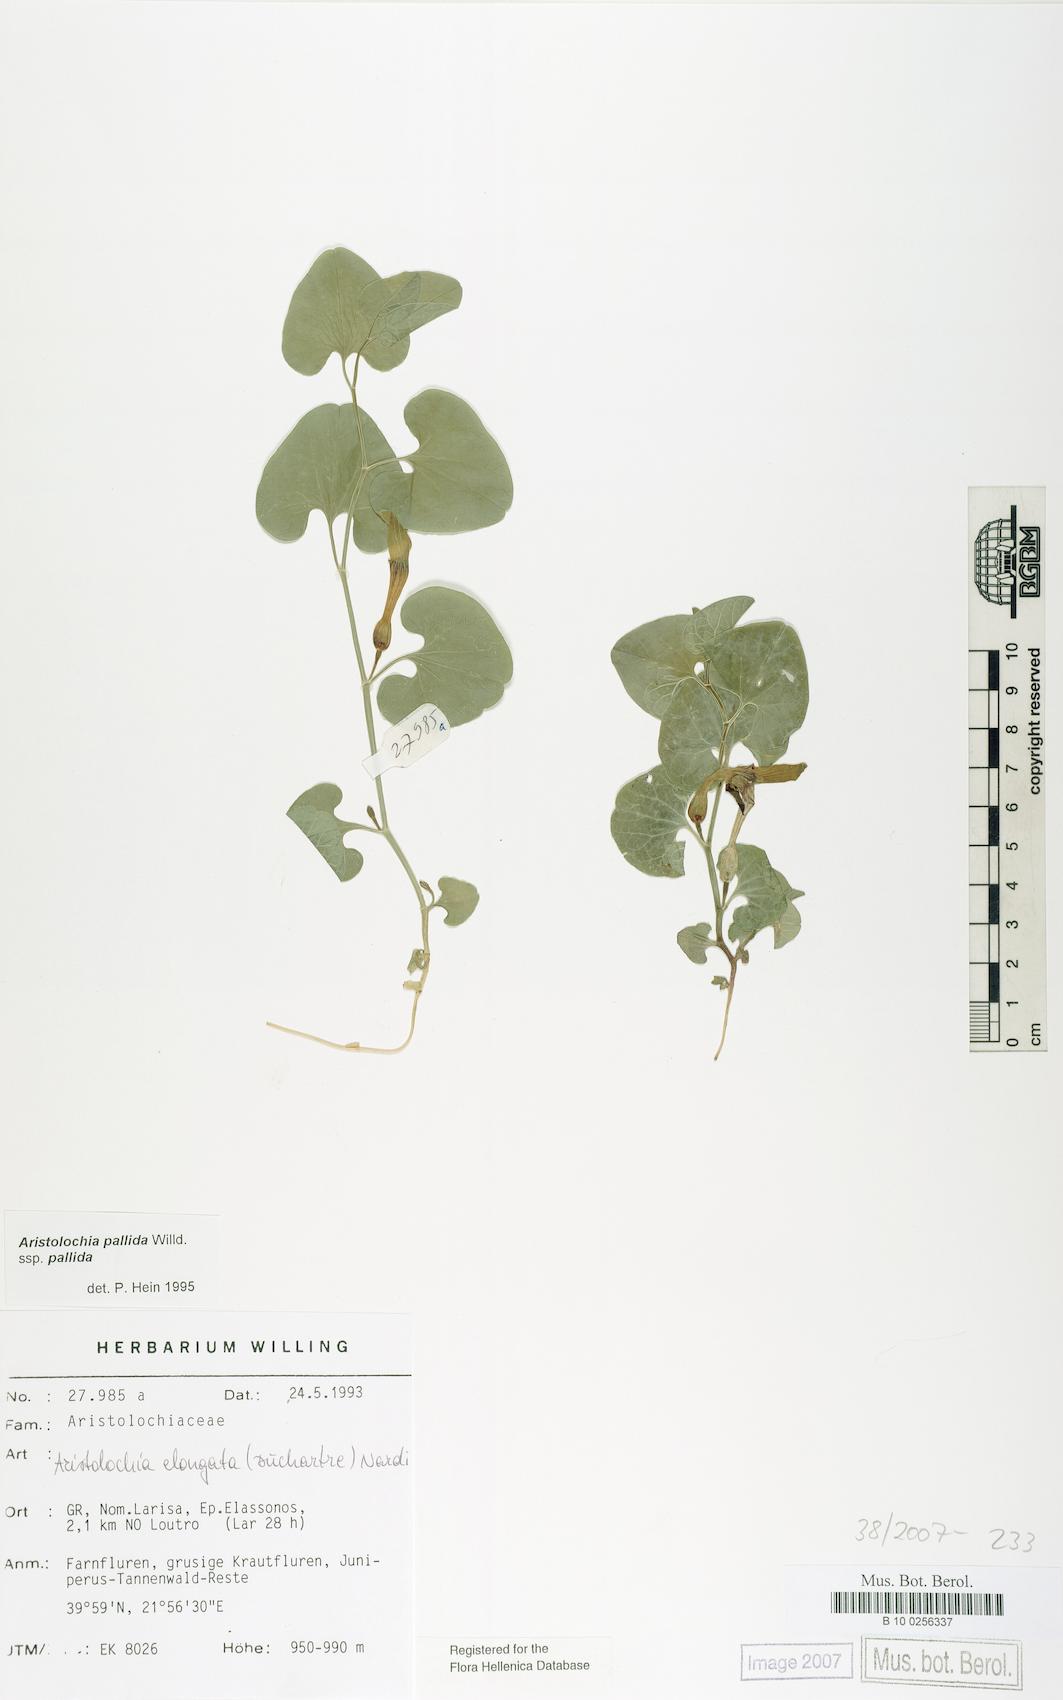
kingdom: Plantae
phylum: Tracheophyta
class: Magnoliopsida
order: Piperales
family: Aristolochiaceae
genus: Aristolochia
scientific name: Aristolochia pallida
